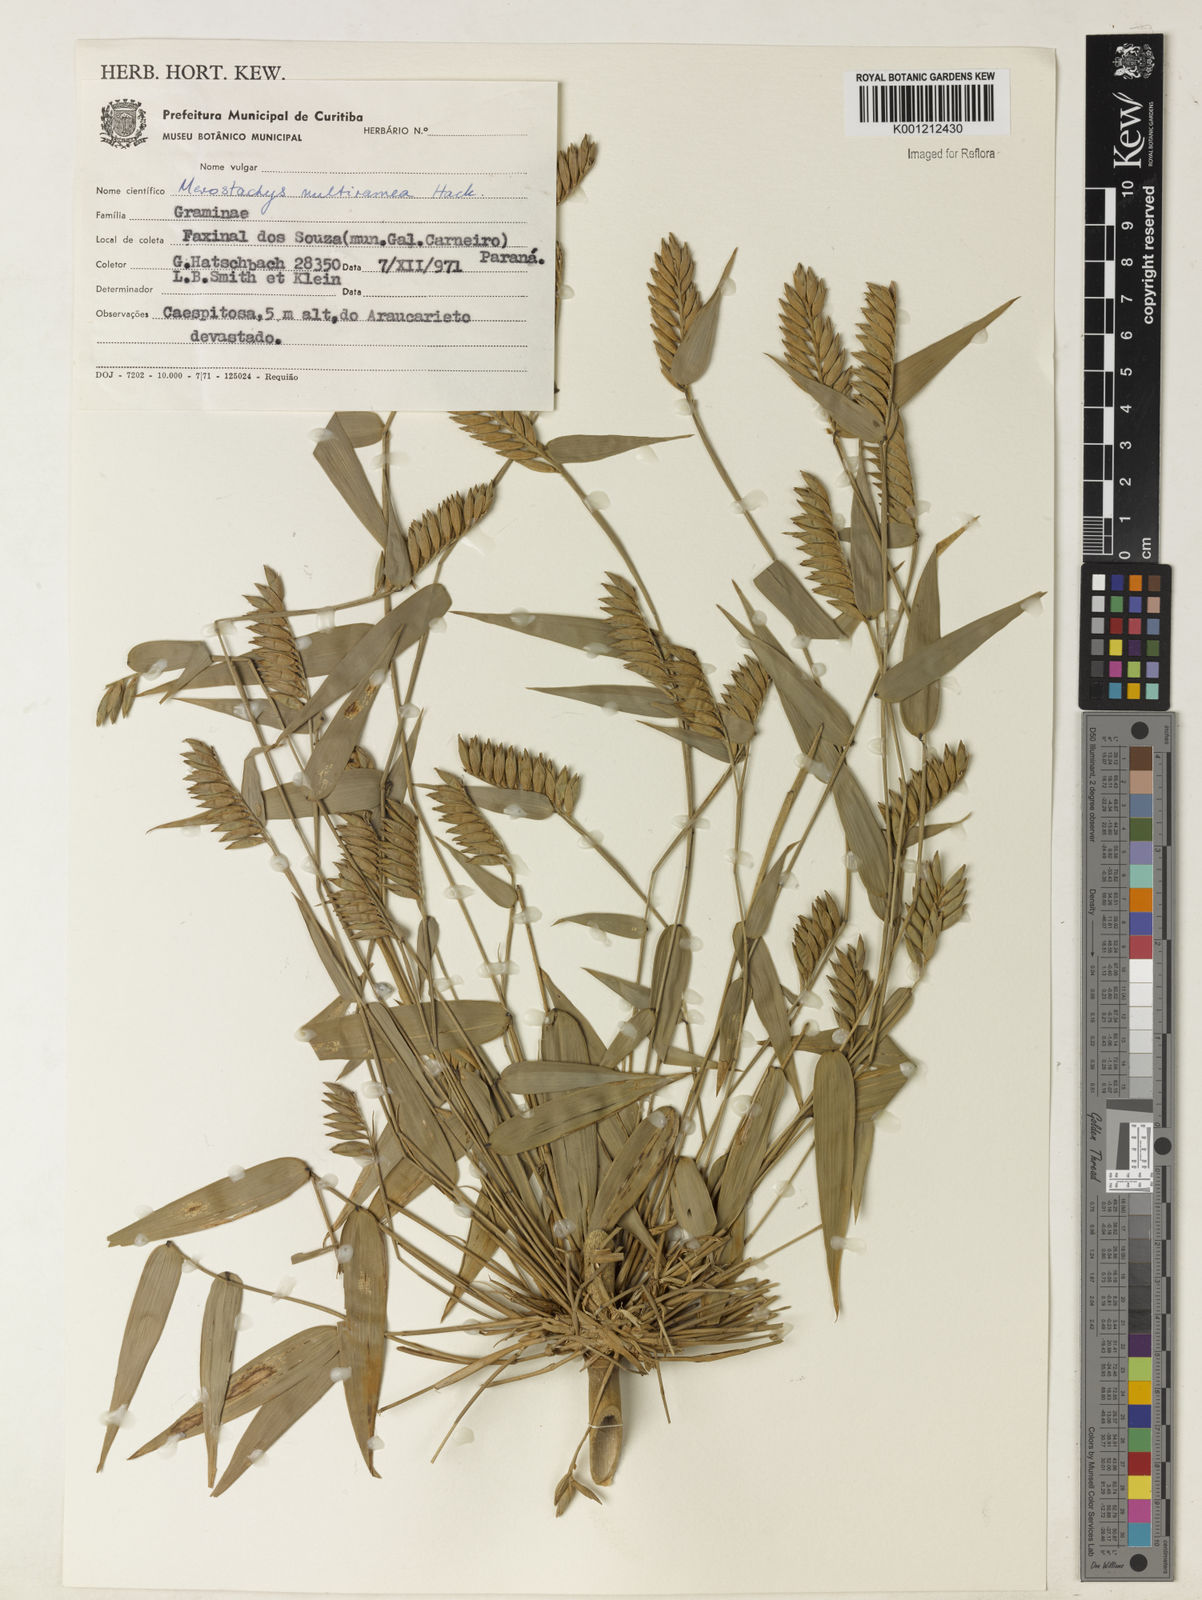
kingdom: Plantae
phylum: Tracheophyta
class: Liliopsida
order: Poales
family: Poaceae
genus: Merostachys
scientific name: Merostachys multiramea
